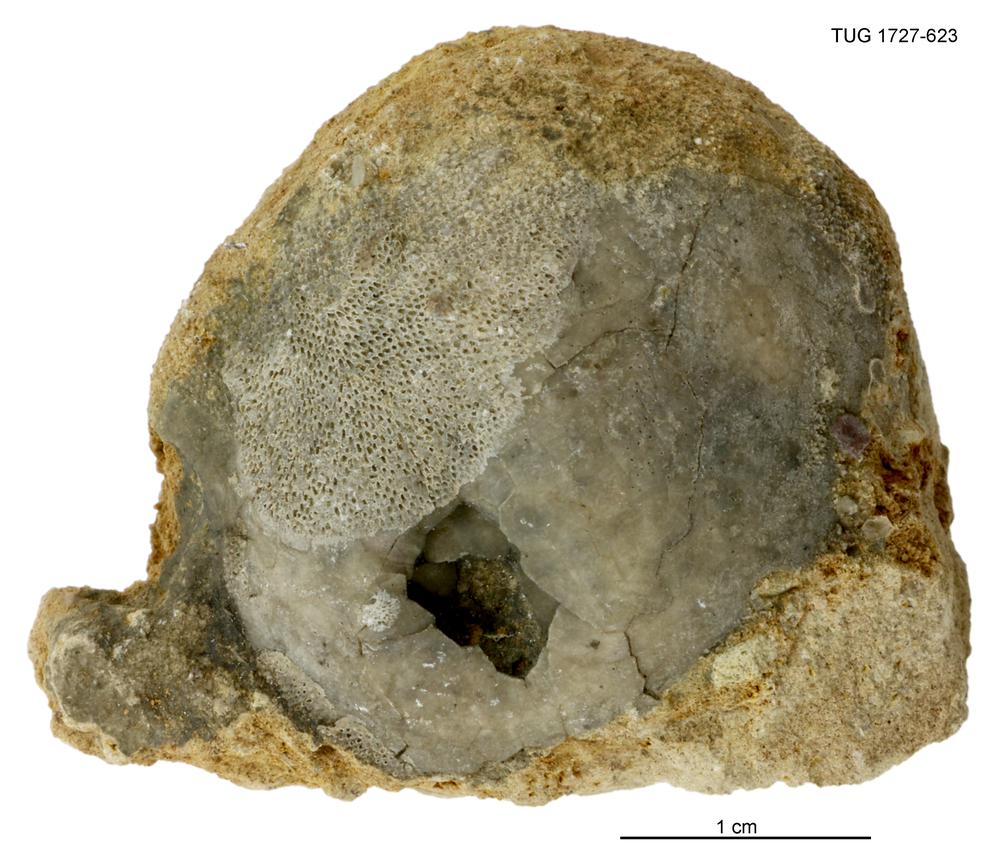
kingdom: Animalia
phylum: Echinodermata
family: Echinosphaeritidae
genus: Echinosphaerites
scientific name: Echinosphaerites
